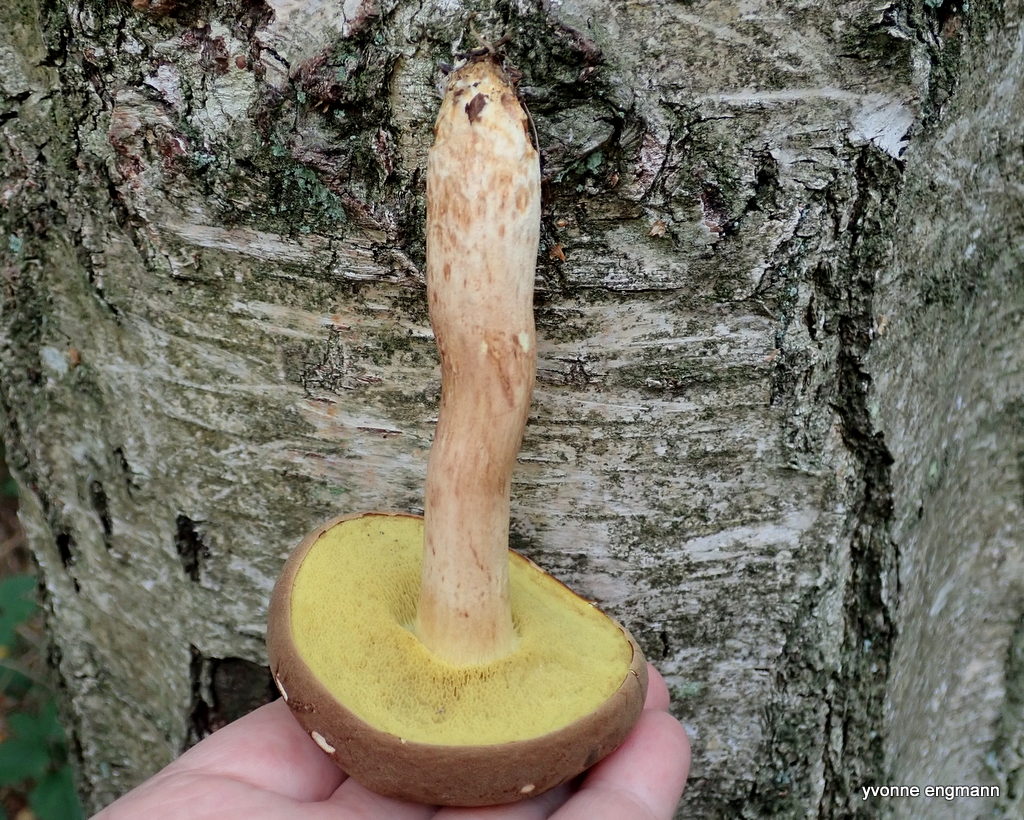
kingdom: Fungi
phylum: Basidiomycota
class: Agaricomycetes
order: Boletales
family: Boletaceae
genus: Xerocomus
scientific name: Xerocomus ferrugineus
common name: vaskeskinds-rørhat
